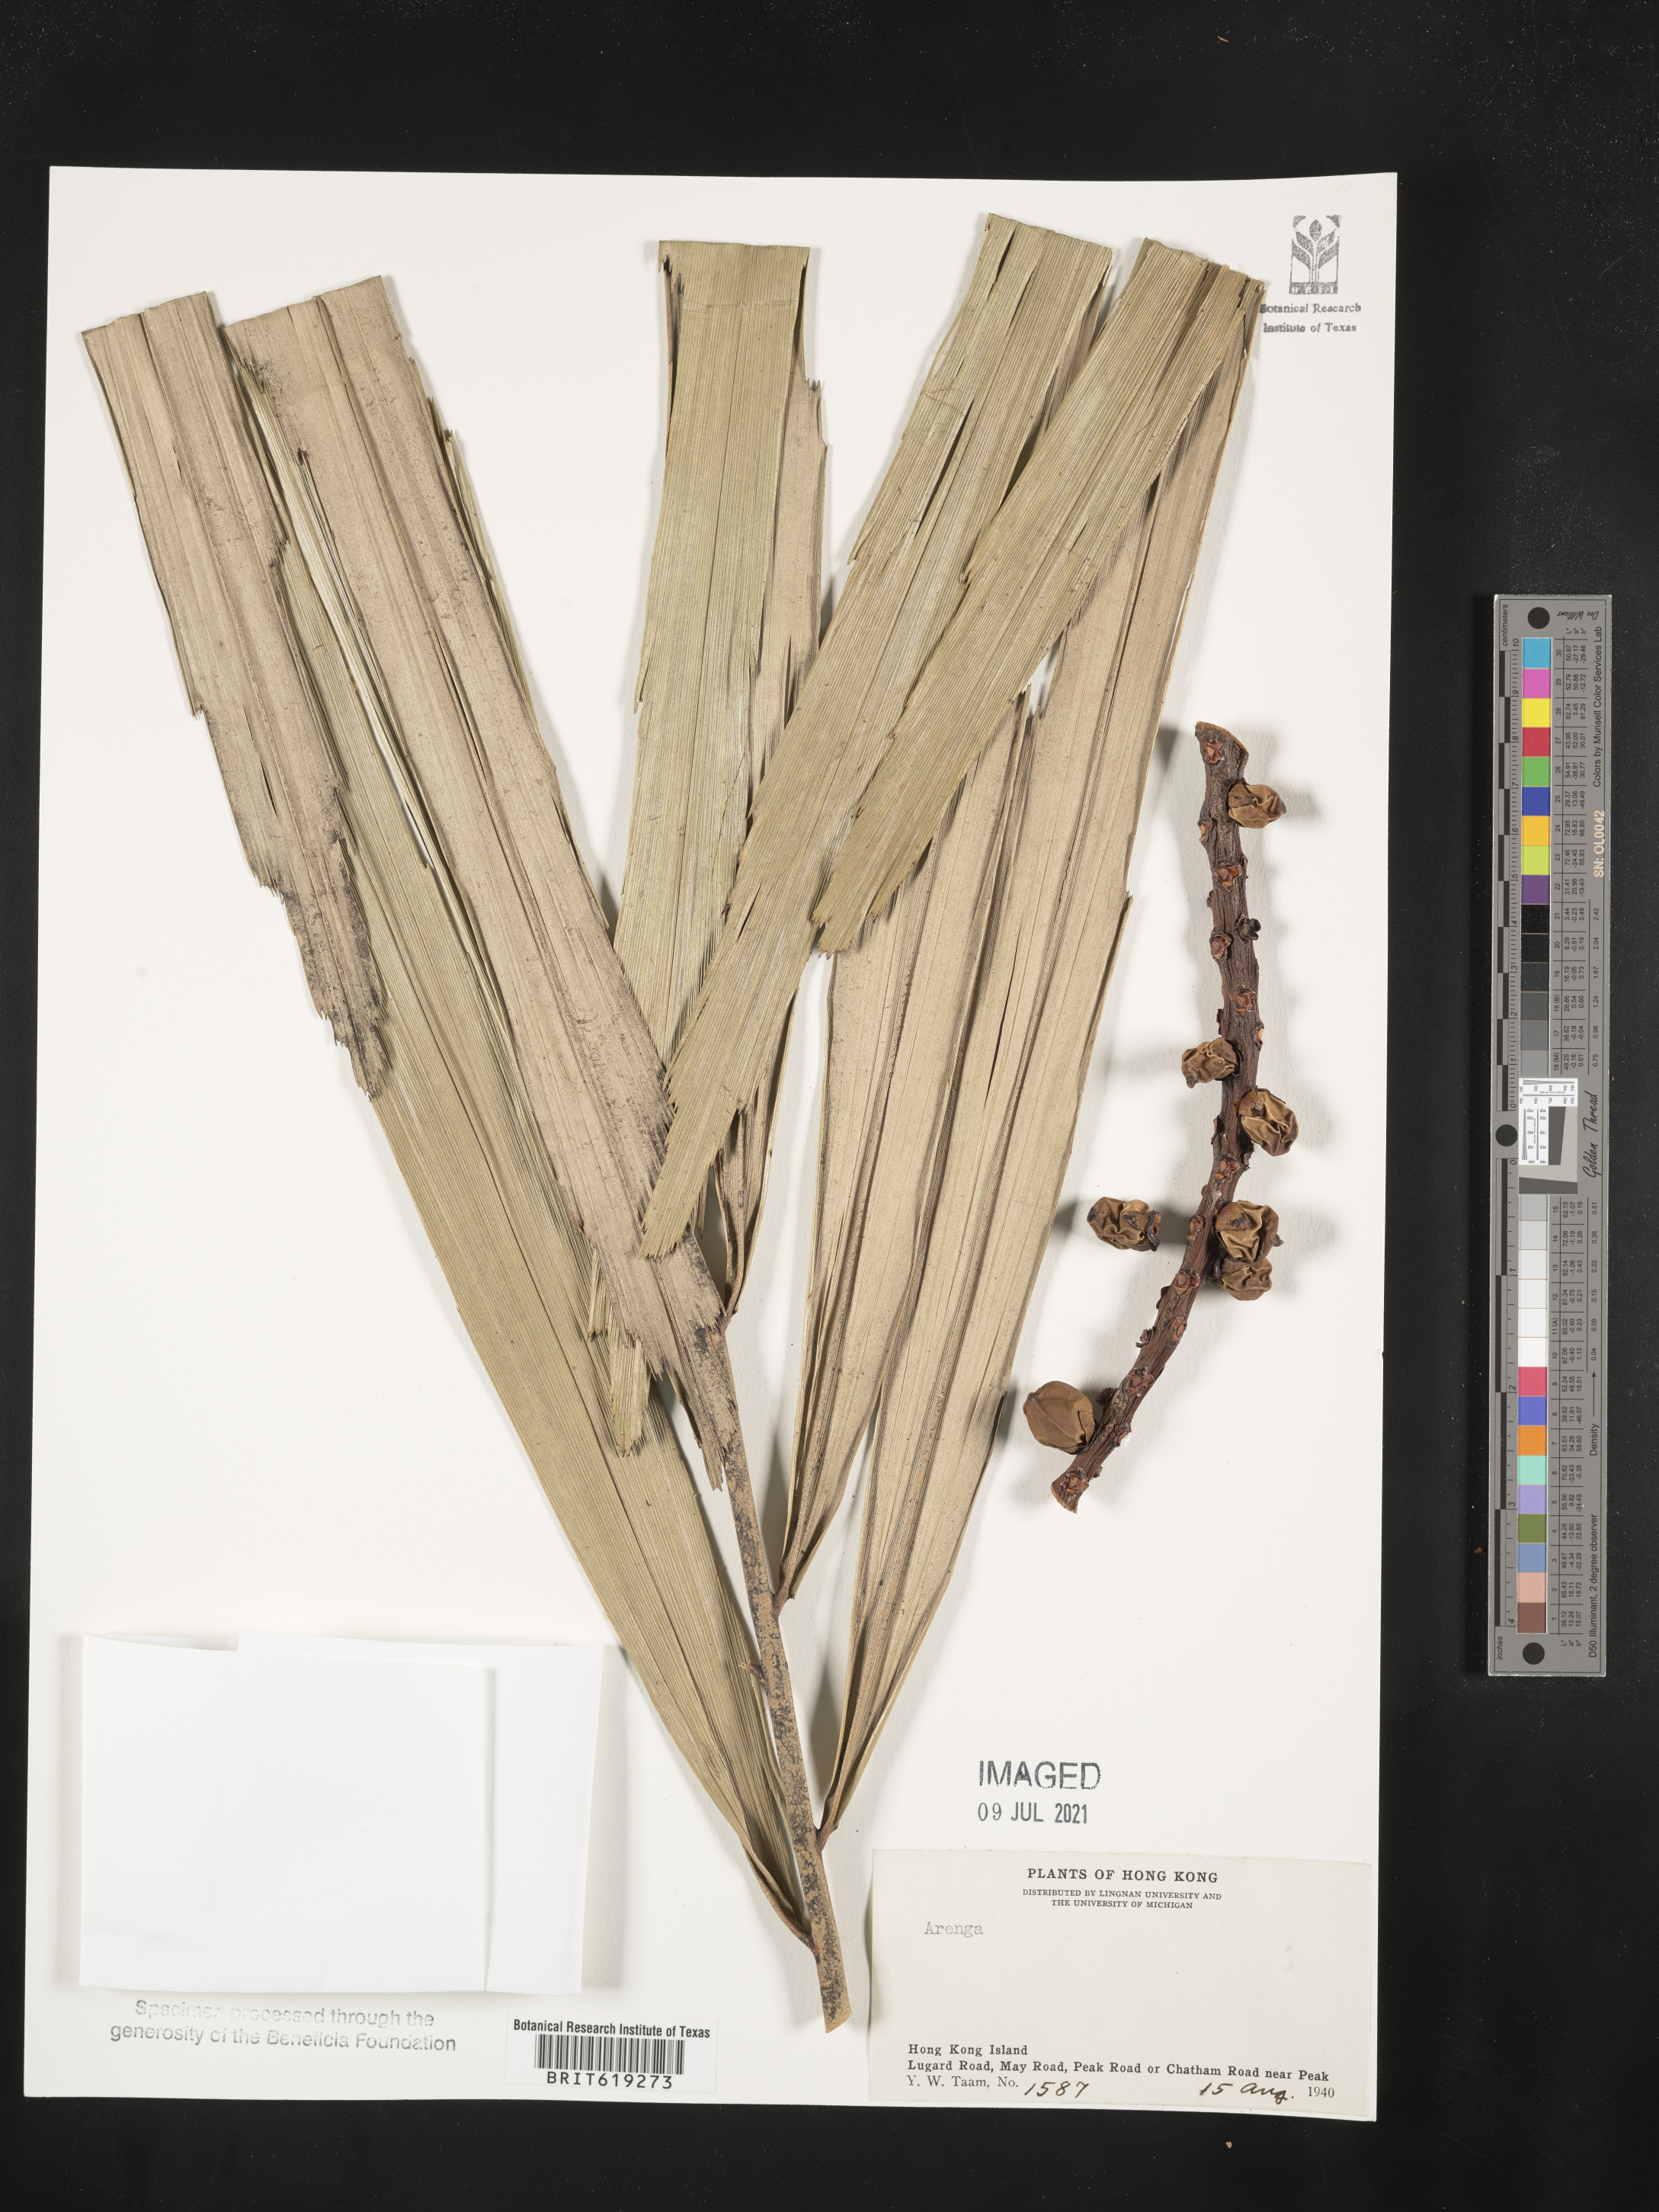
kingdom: Plantae
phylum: Tracheophyta
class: Liliopsida
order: Arecales
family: Arecaceae
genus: Arenga
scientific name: Arenga
